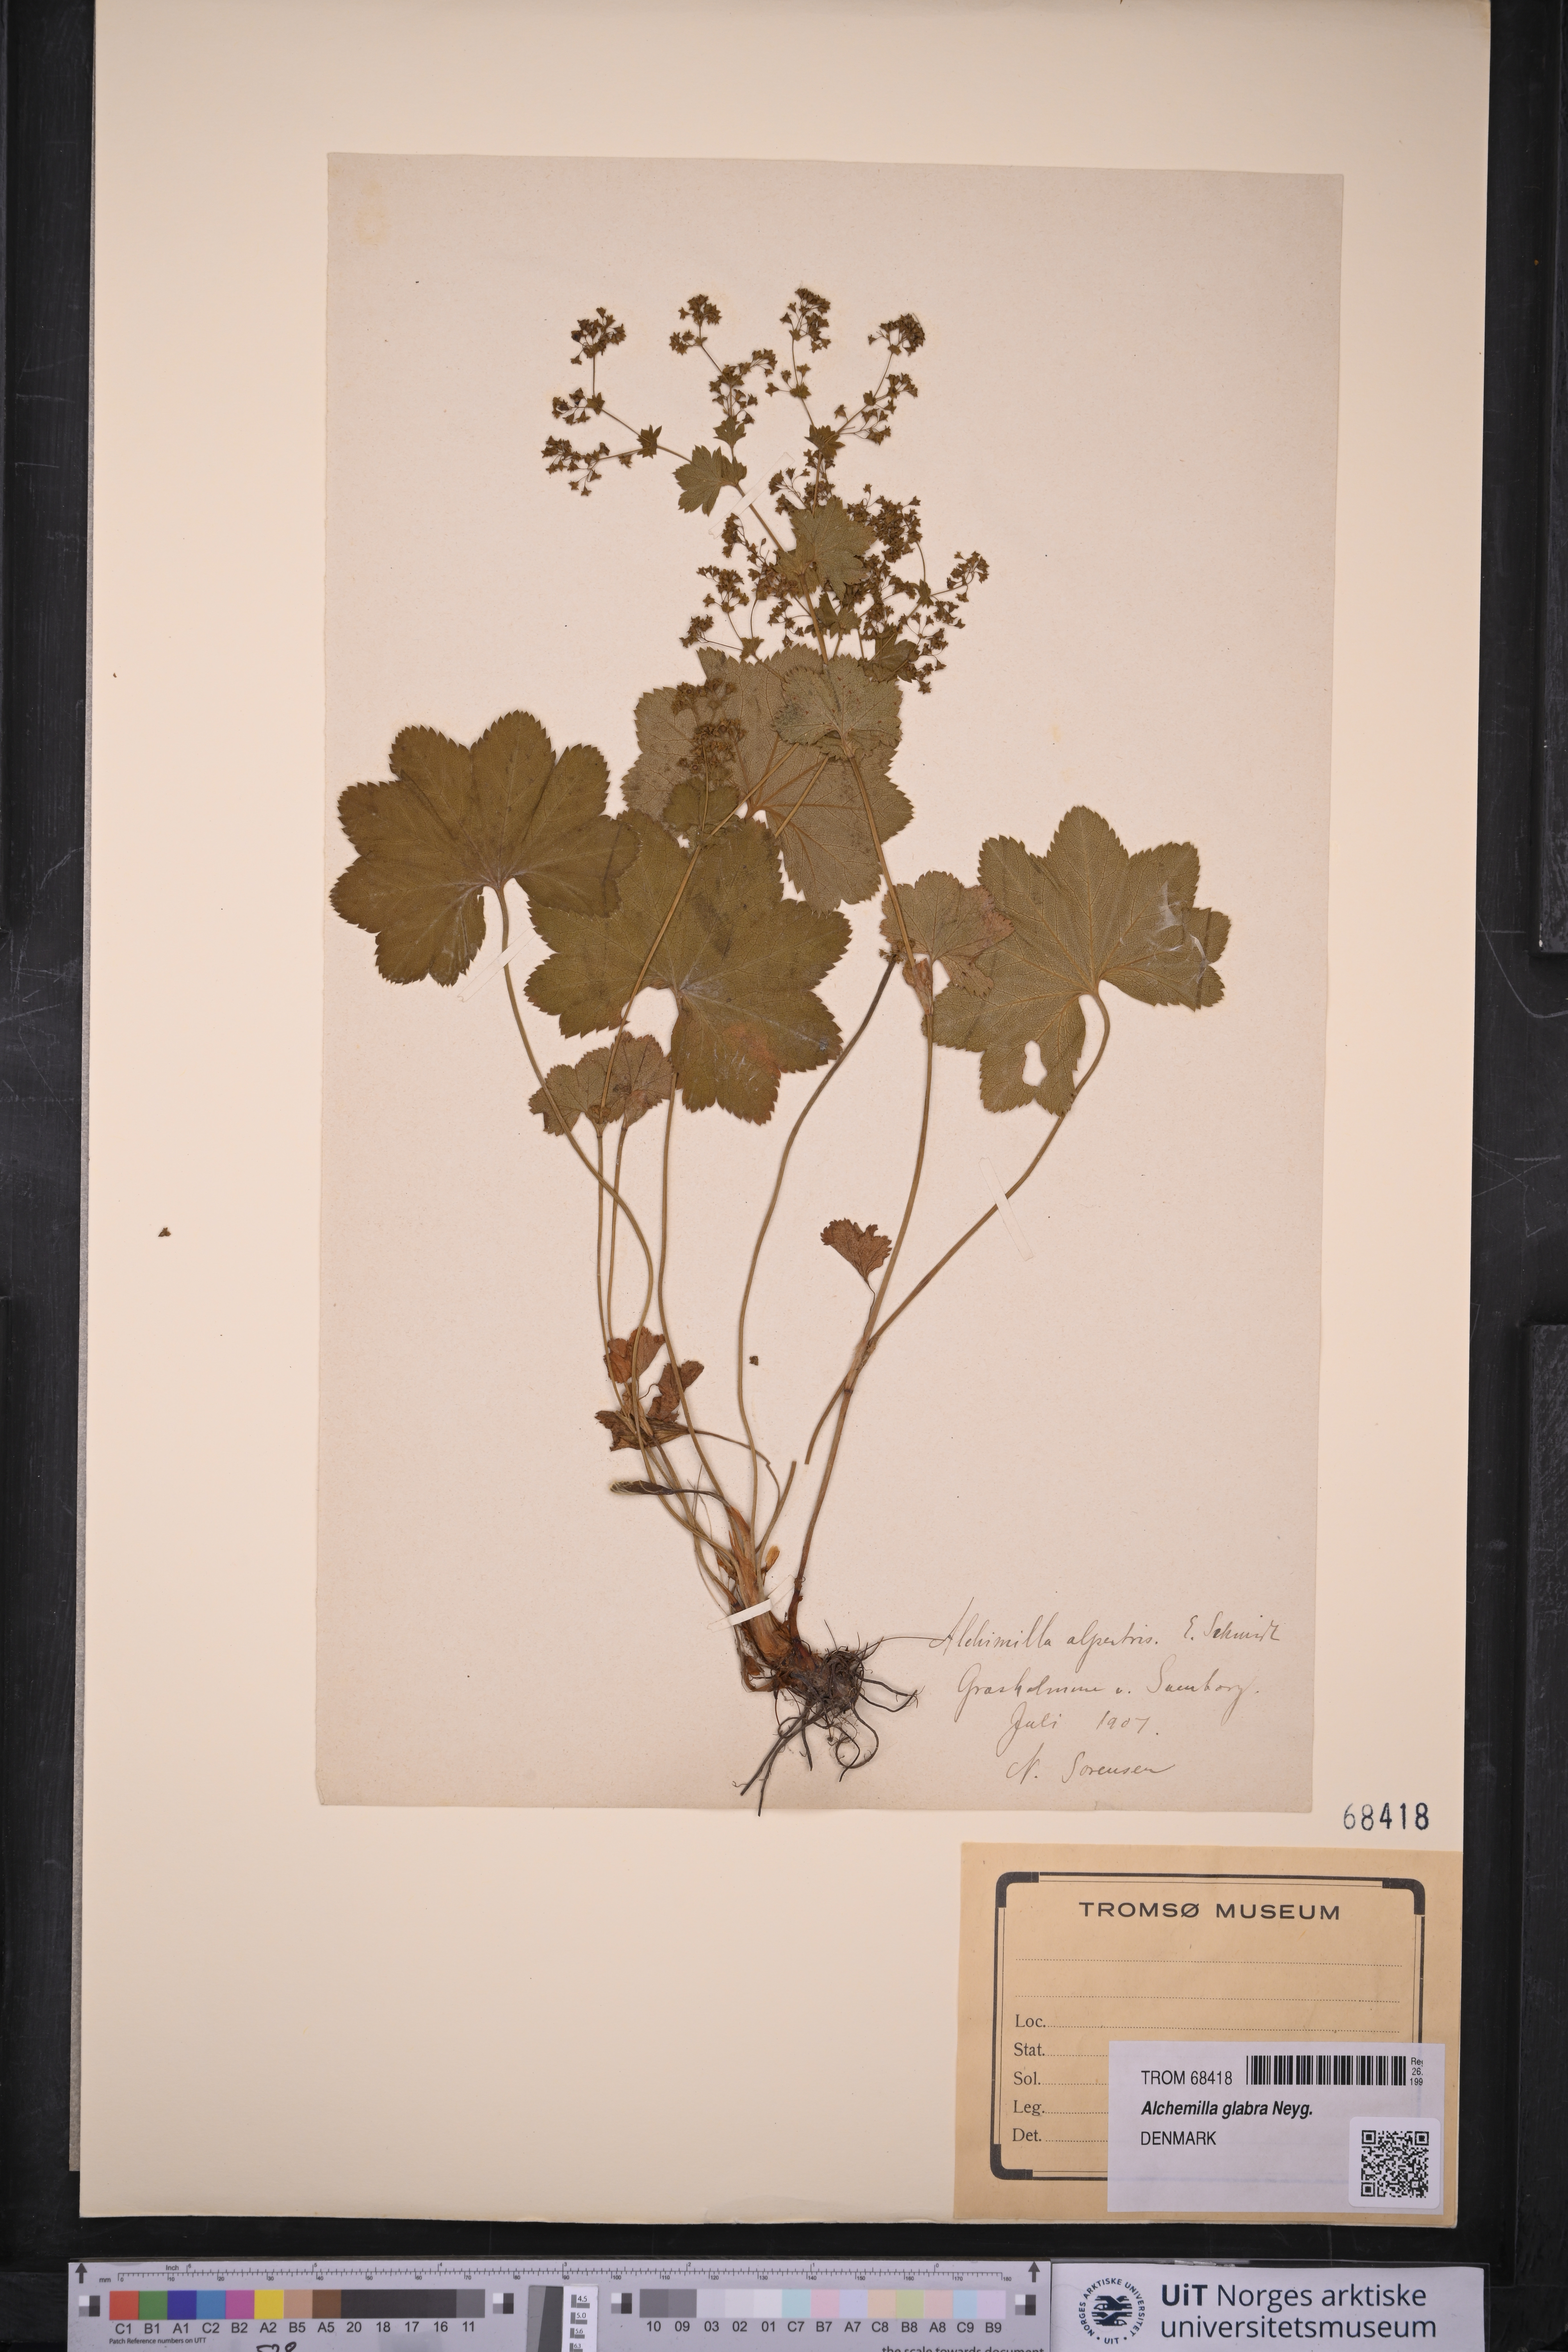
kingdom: Plantae
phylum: Tracheophyta
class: Magnoliopsida
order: Rosales
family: Rosaceae
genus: Alchemilla
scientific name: Alchemilla glabra
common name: Smooth lady's-mantle
